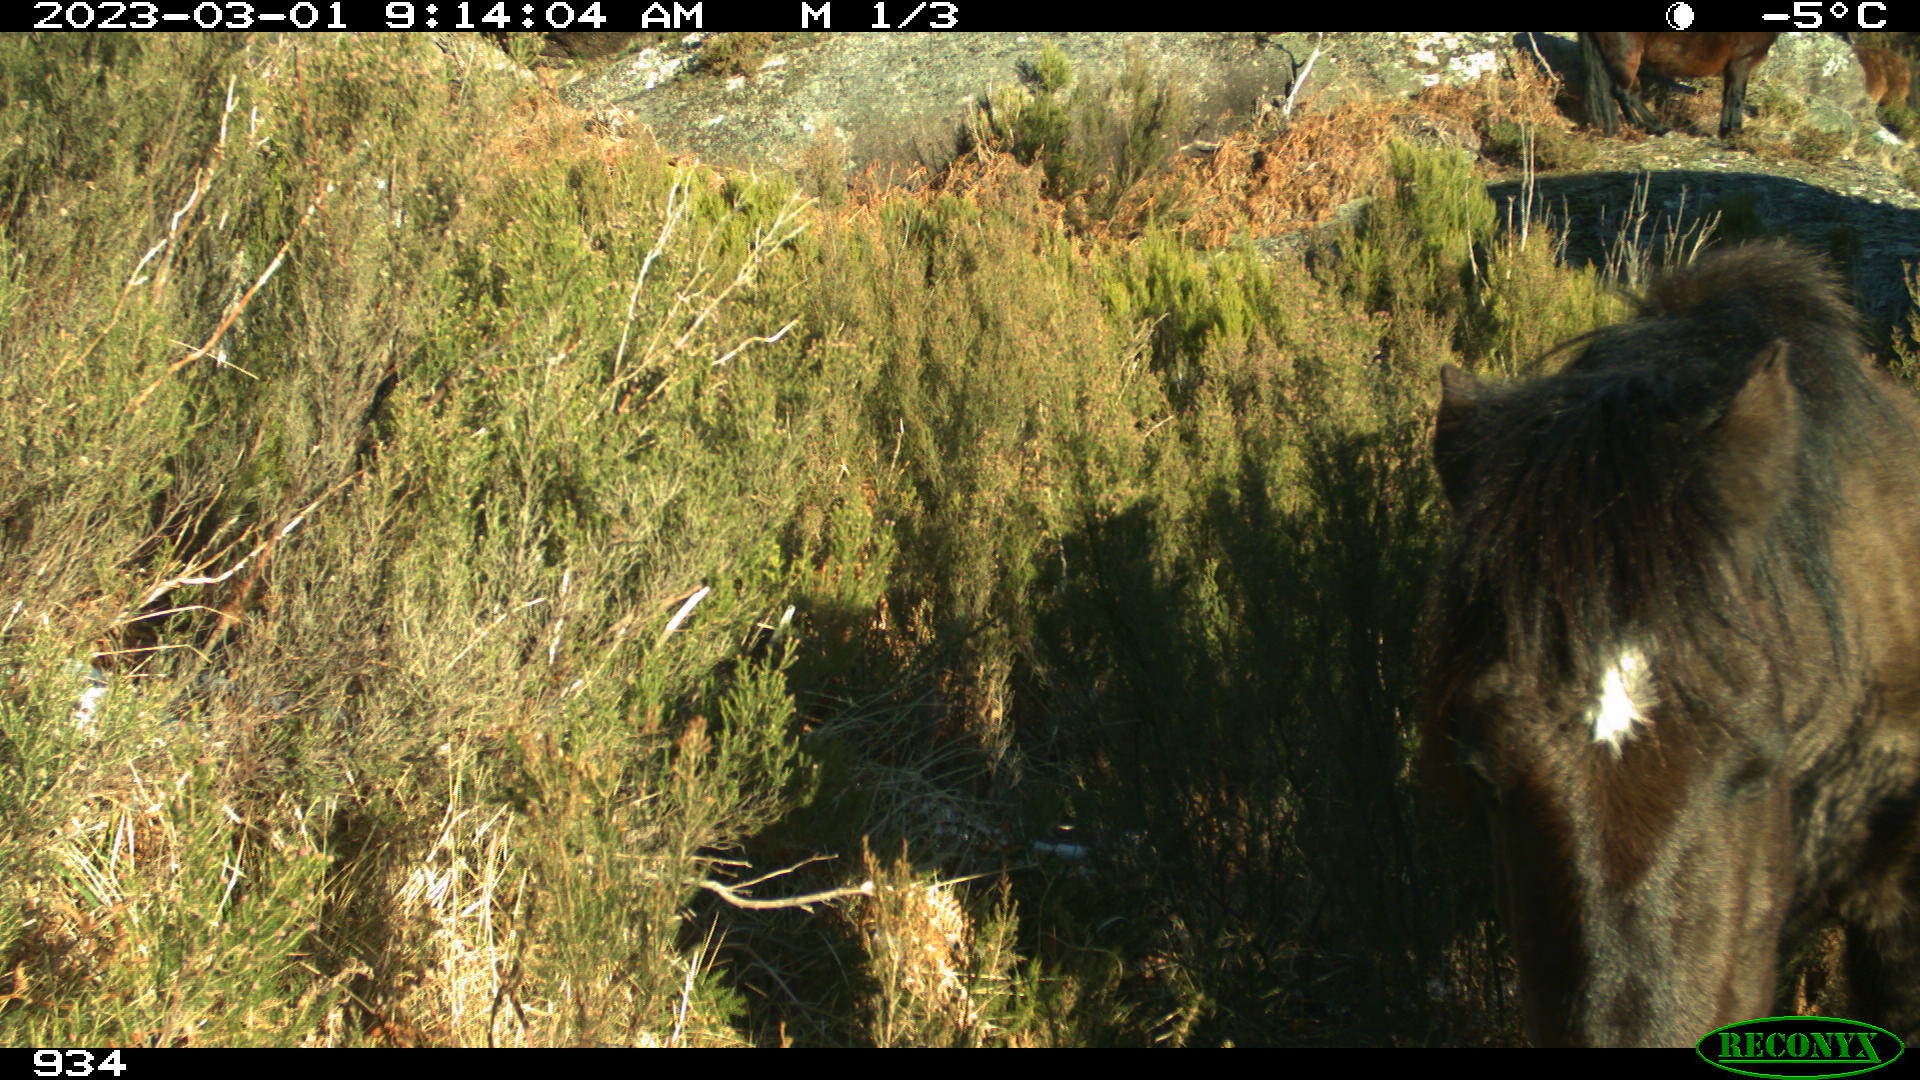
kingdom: Animalia
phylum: Chordata
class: Mammalia
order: Perissodactyla
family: Equidae
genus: Equus
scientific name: Equus caballus
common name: Horse
